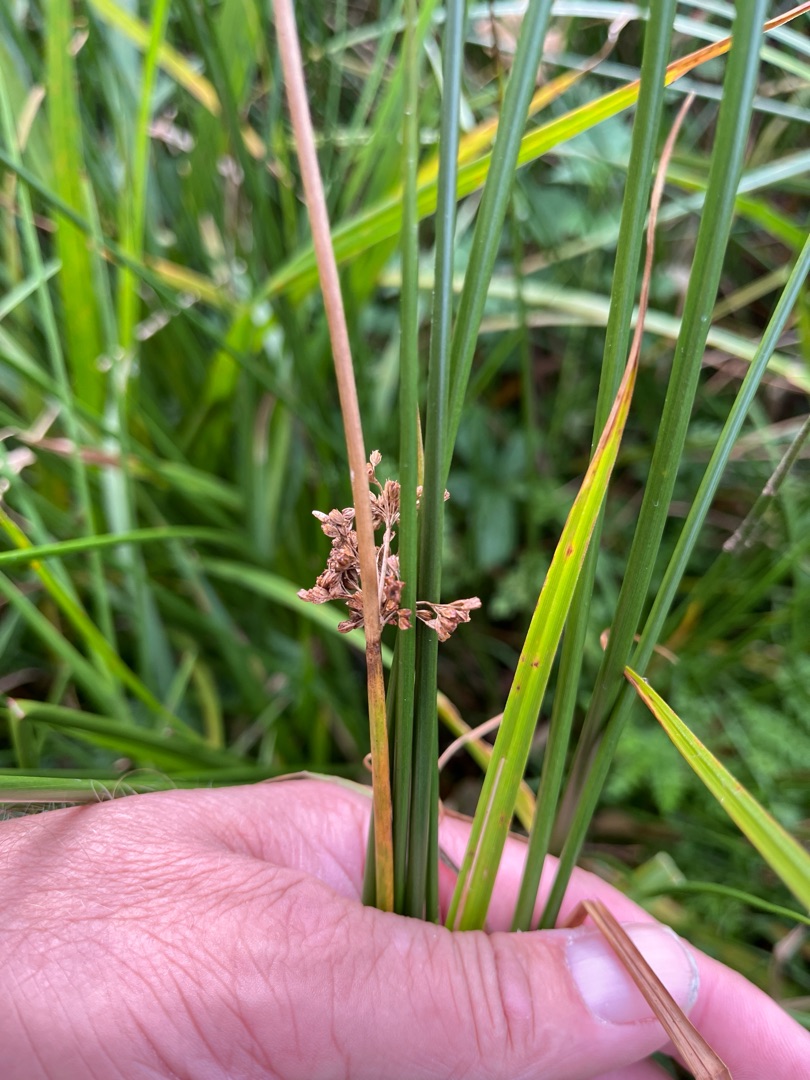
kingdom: Plantae
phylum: Tracheophyta
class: Liliopsida
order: Poales
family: Juncaceae
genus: Juncus
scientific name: Juncus effusus
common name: Lyse-siv
